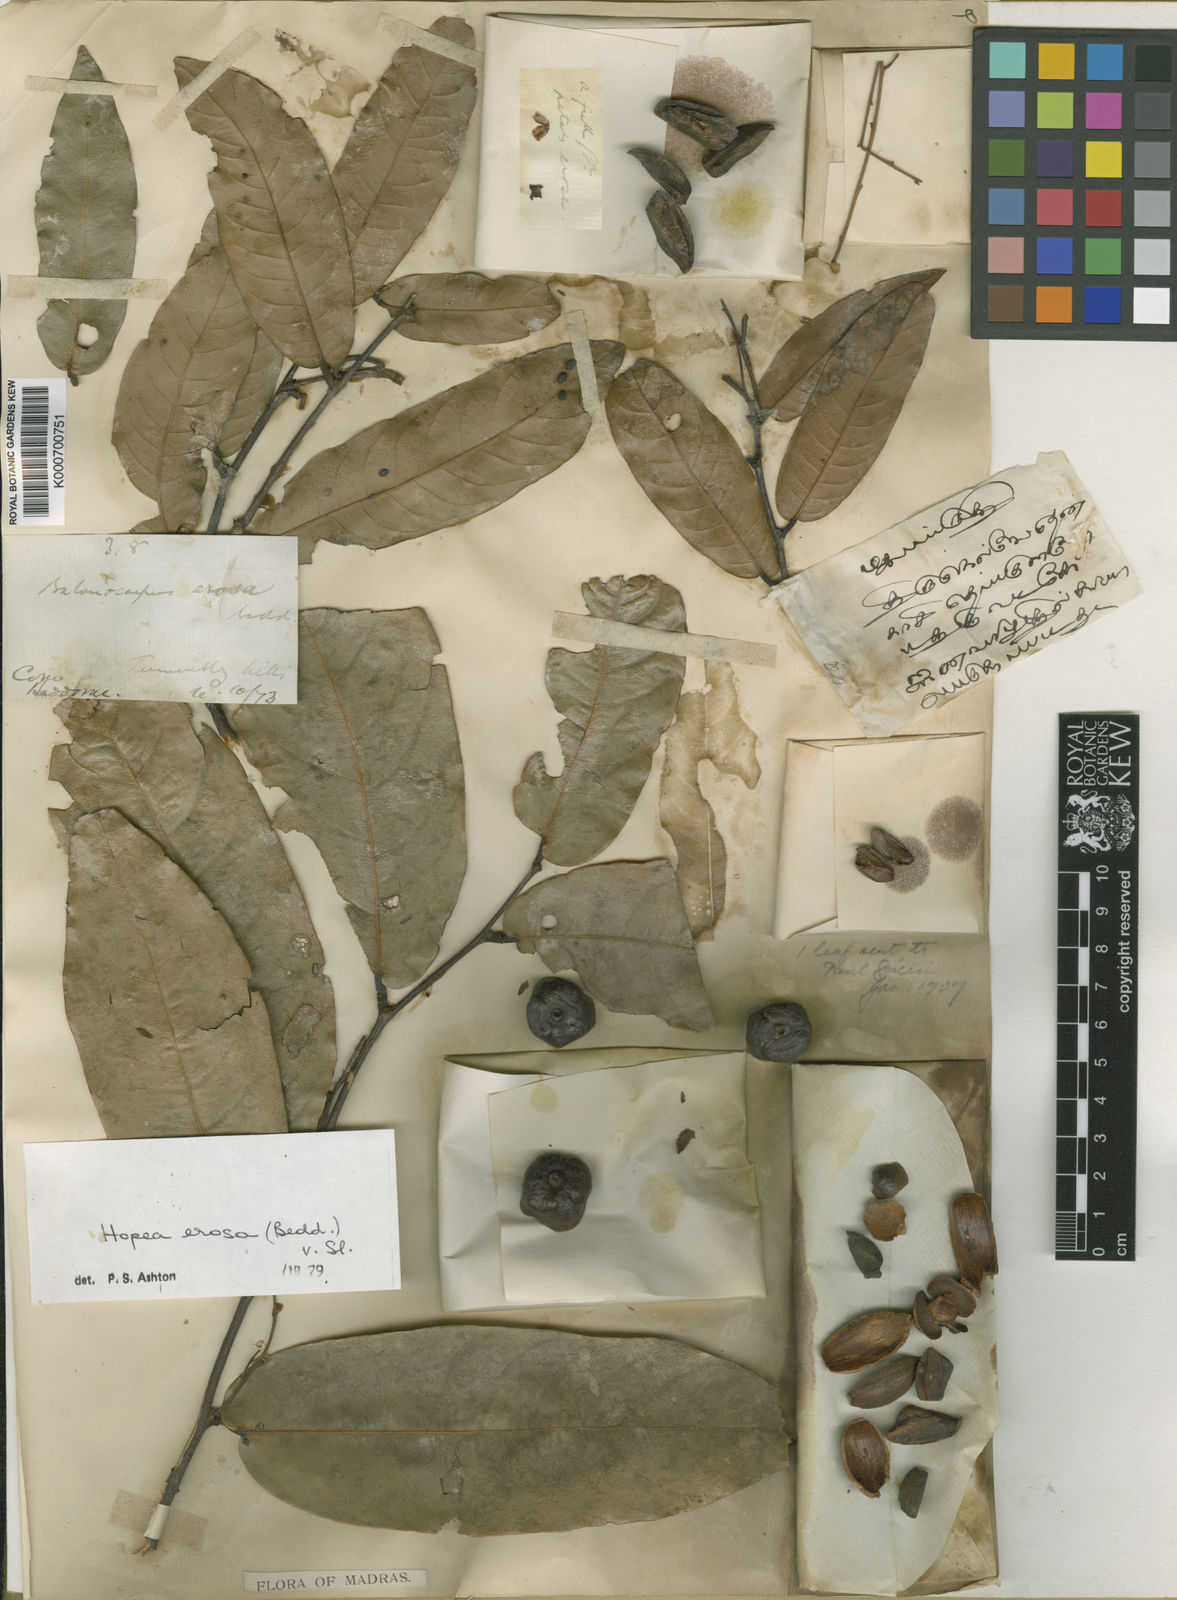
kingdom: Plantae
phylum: Tracheophyta
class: Magnoliopsida
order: Malvales
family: Dipterocarpaceae
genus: Hopea
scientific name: Hopea erosa
